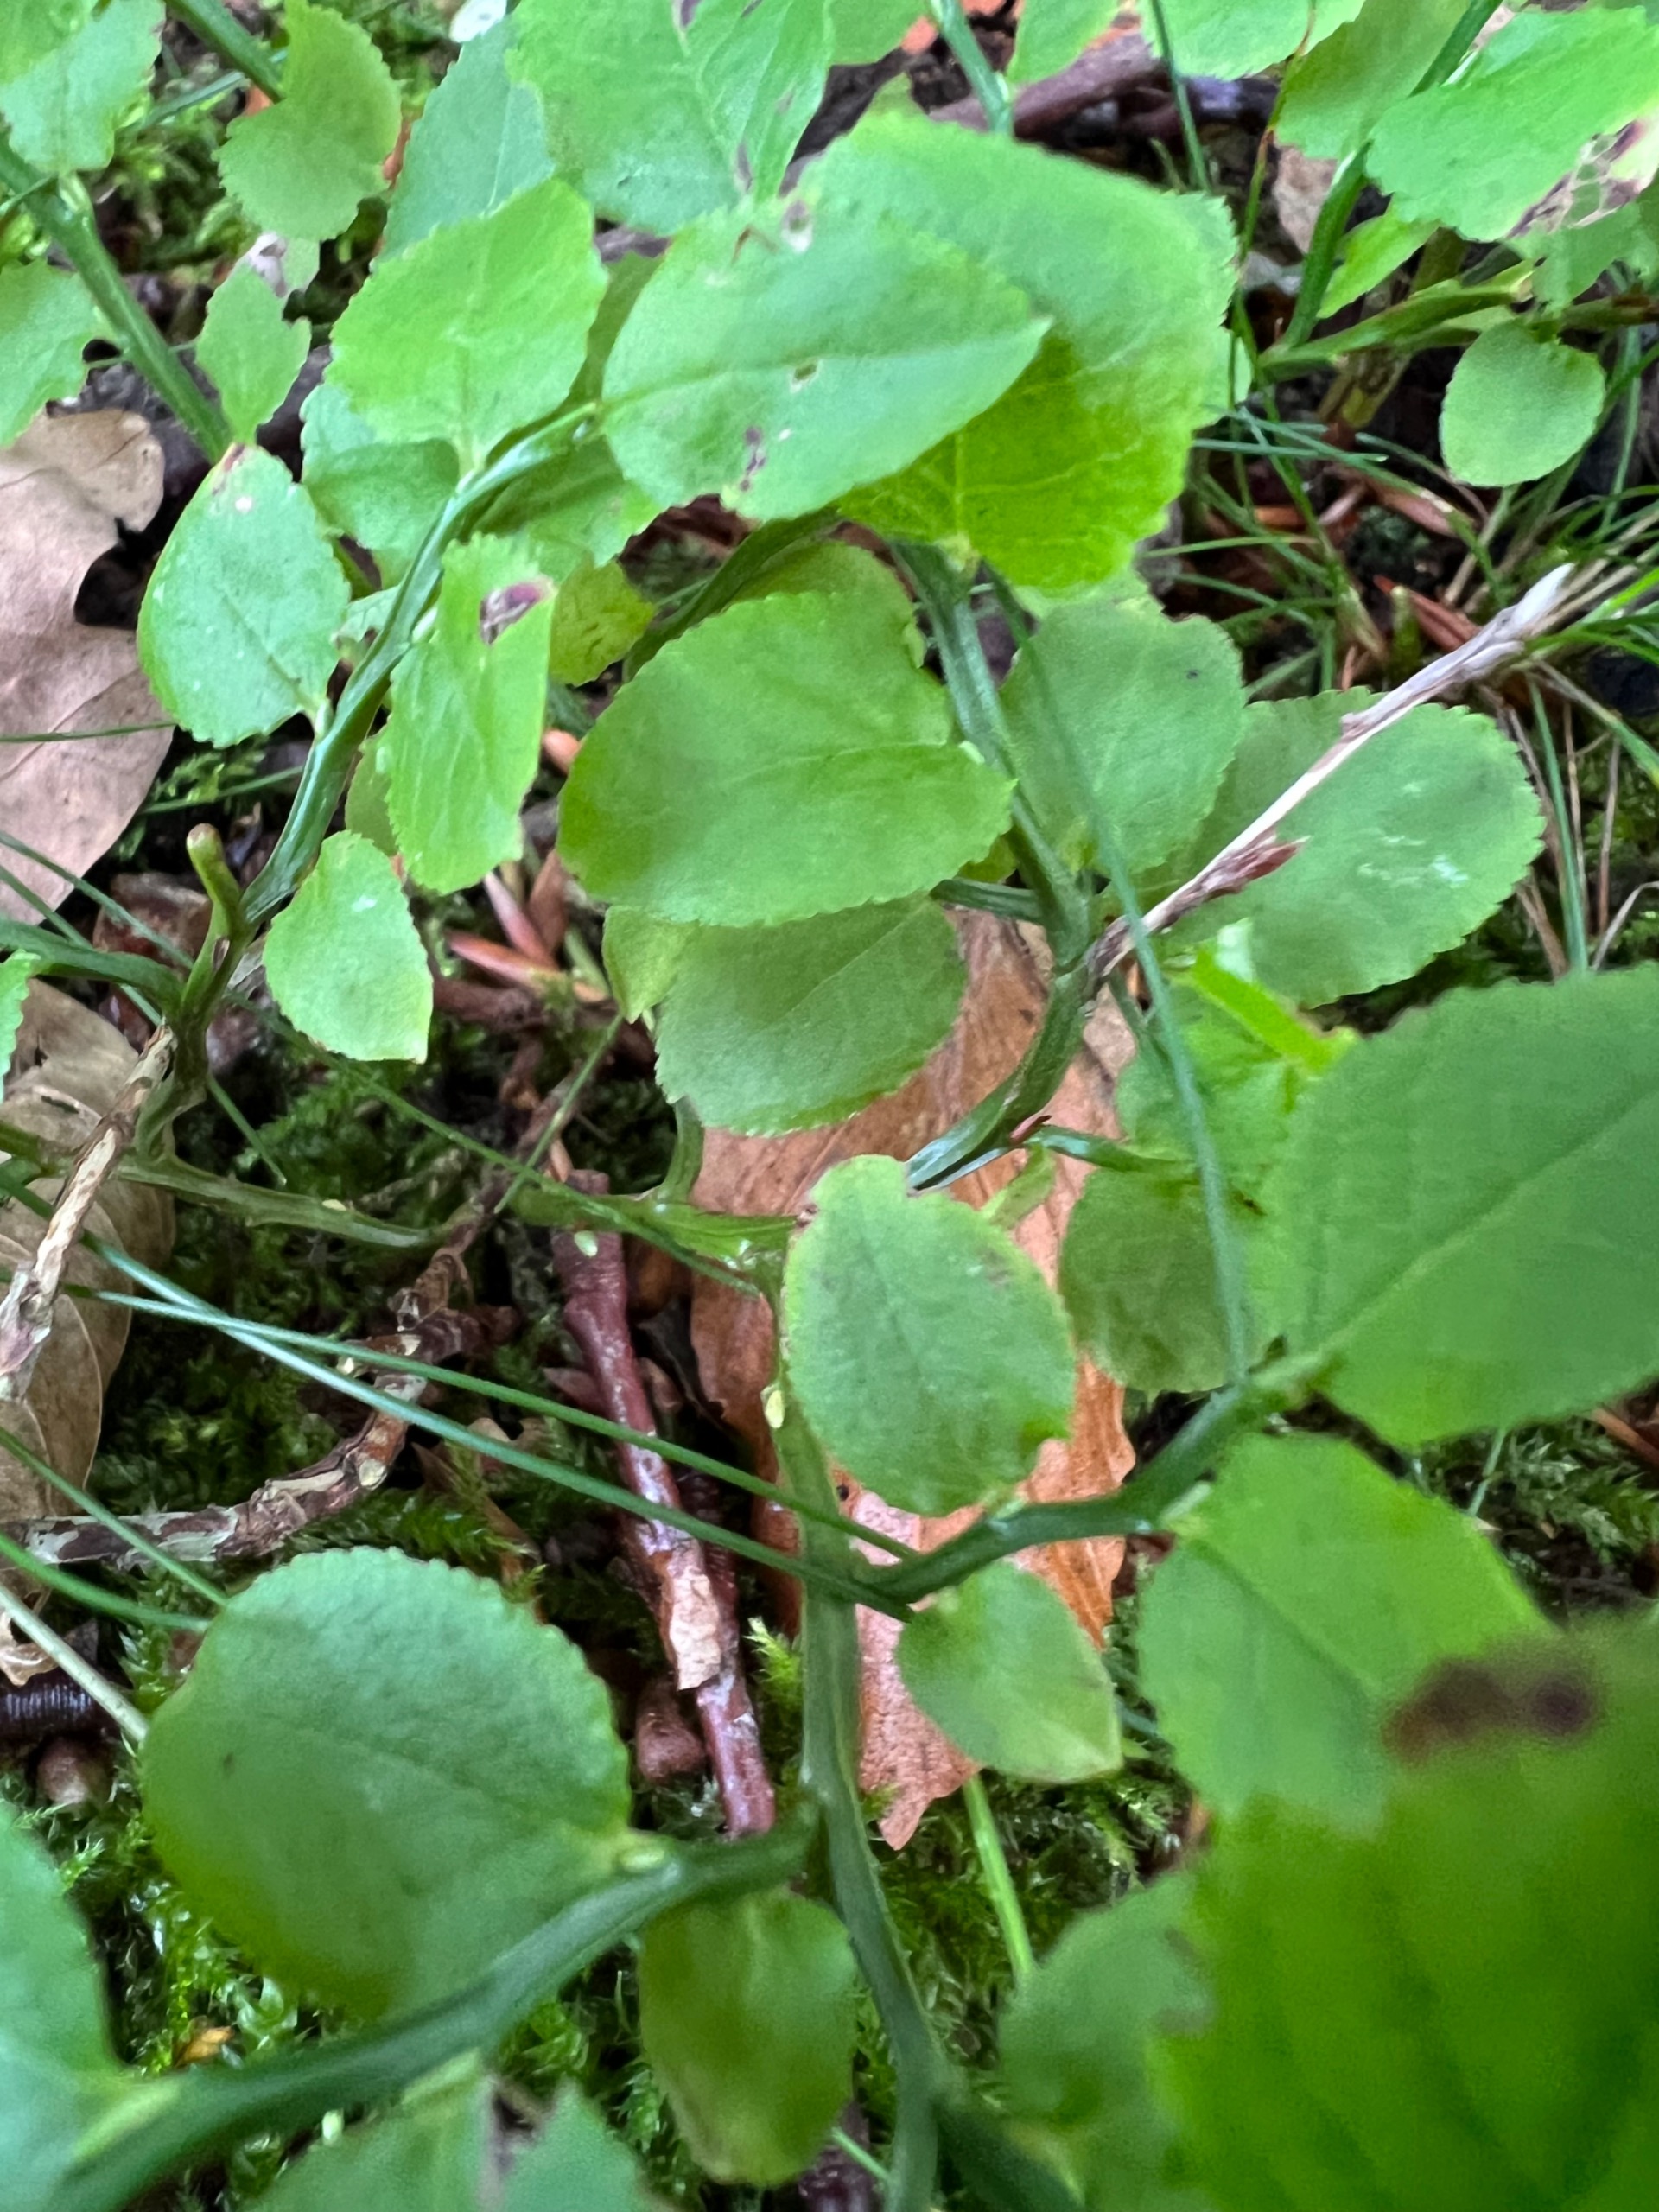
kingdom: Plantae
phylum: Tracheophyta
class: Magnoliopsida
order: Ericales
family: Ericaceae
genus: Vaccinium
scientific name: Vaccinium myrtillus
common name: Blåbær
